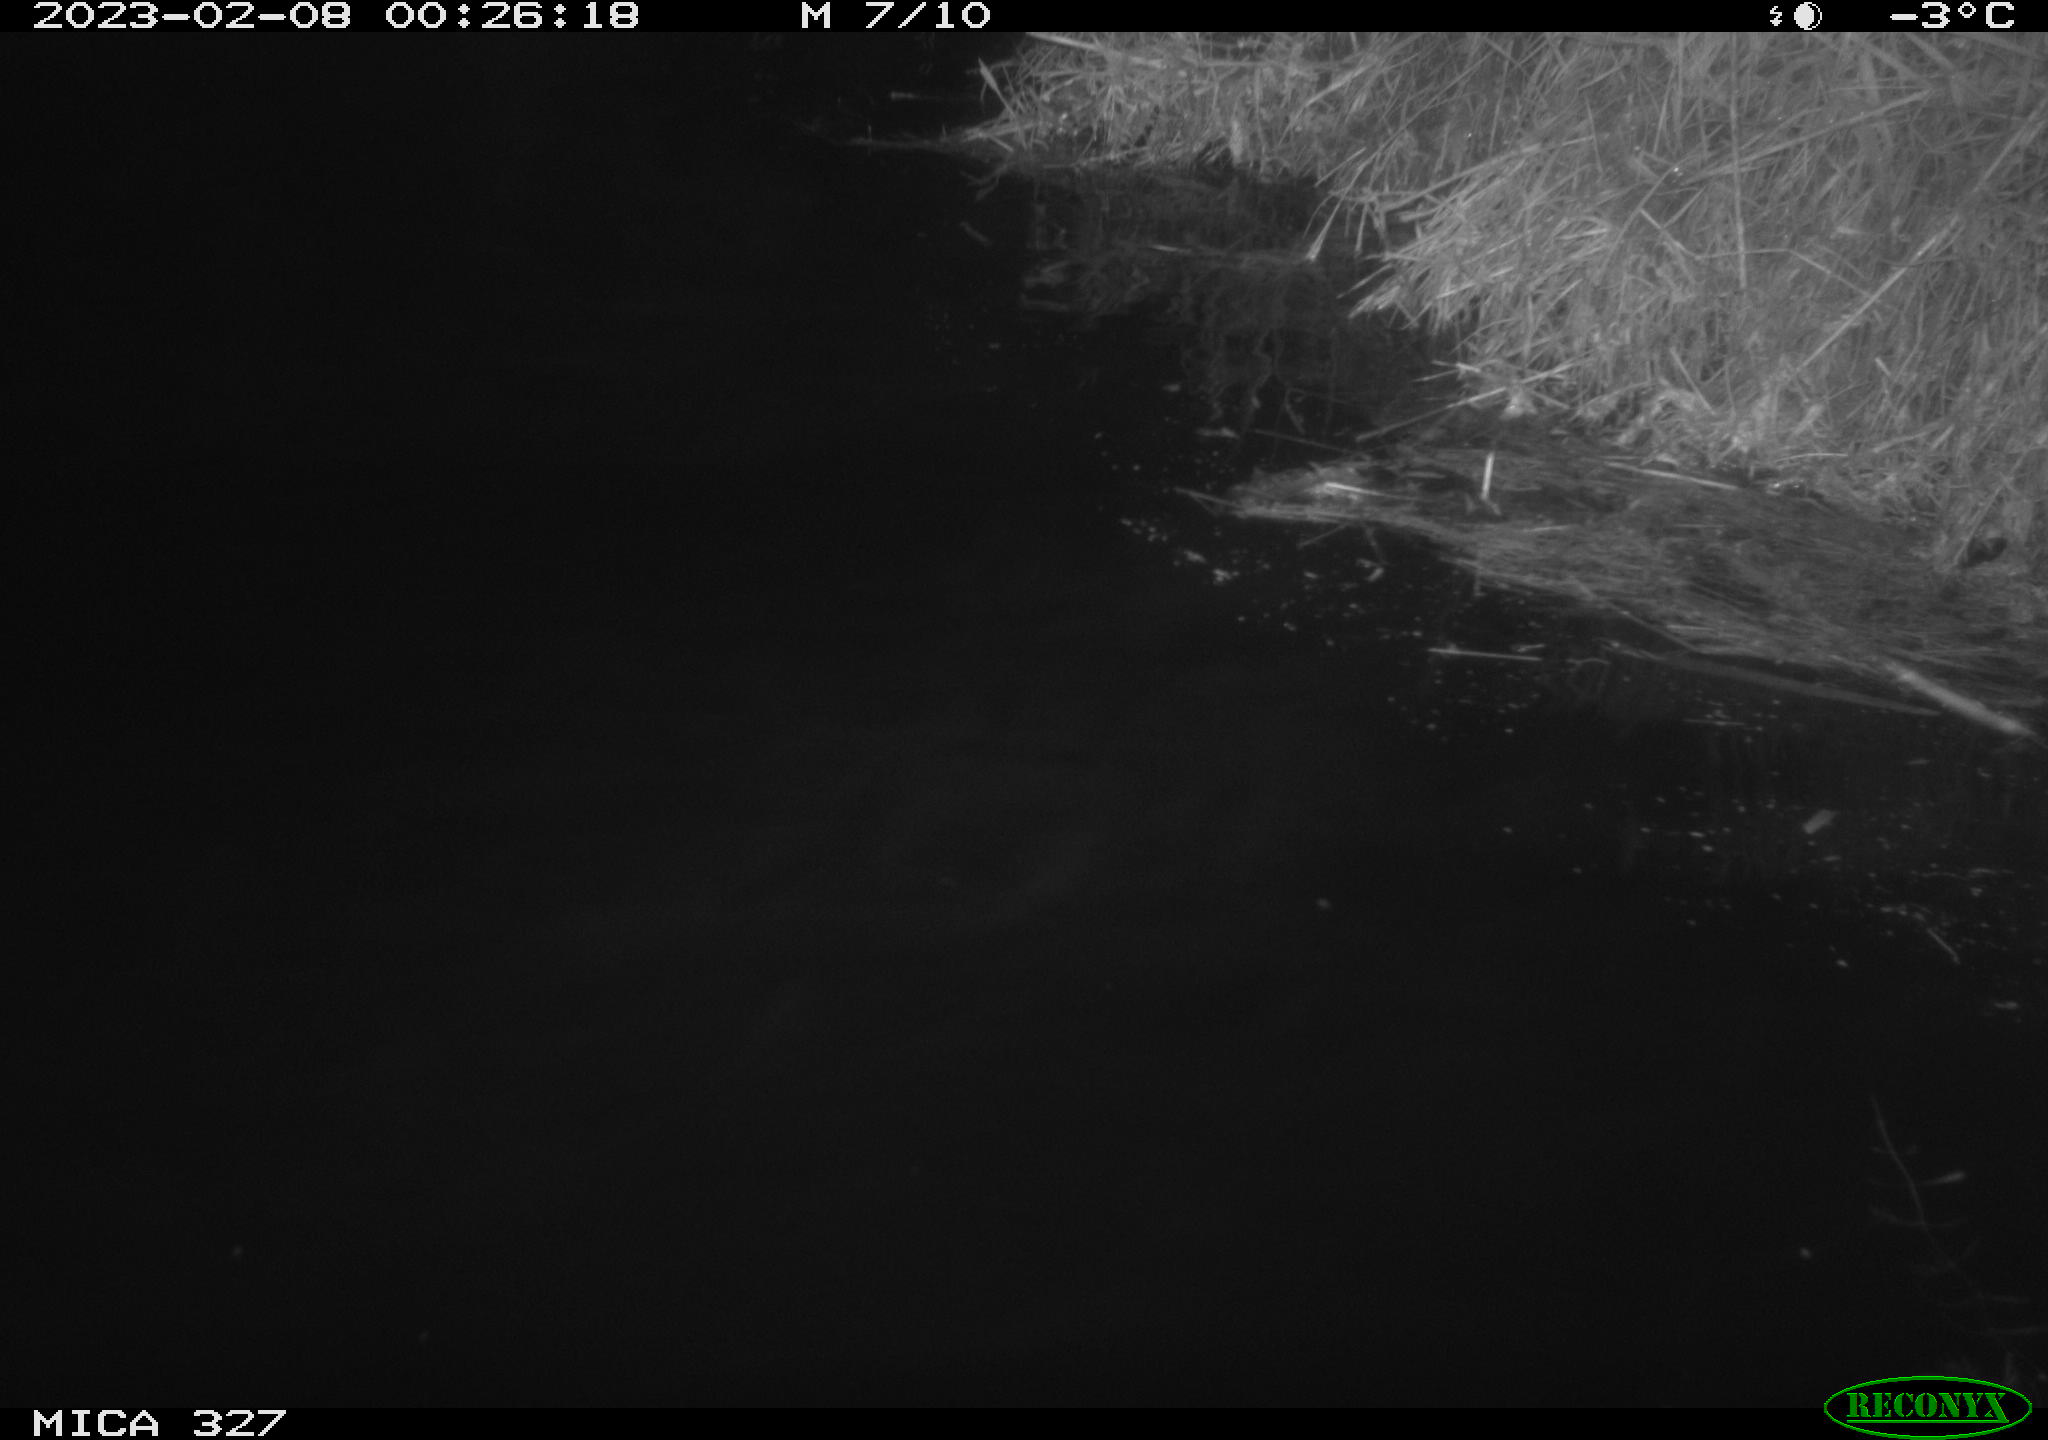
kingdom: Animalia
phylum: Chordata
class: Mammalia
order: Rodentia
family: Cricetidae
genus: Ondatra
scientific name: Ondatra zibethicus
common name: Muskrat
